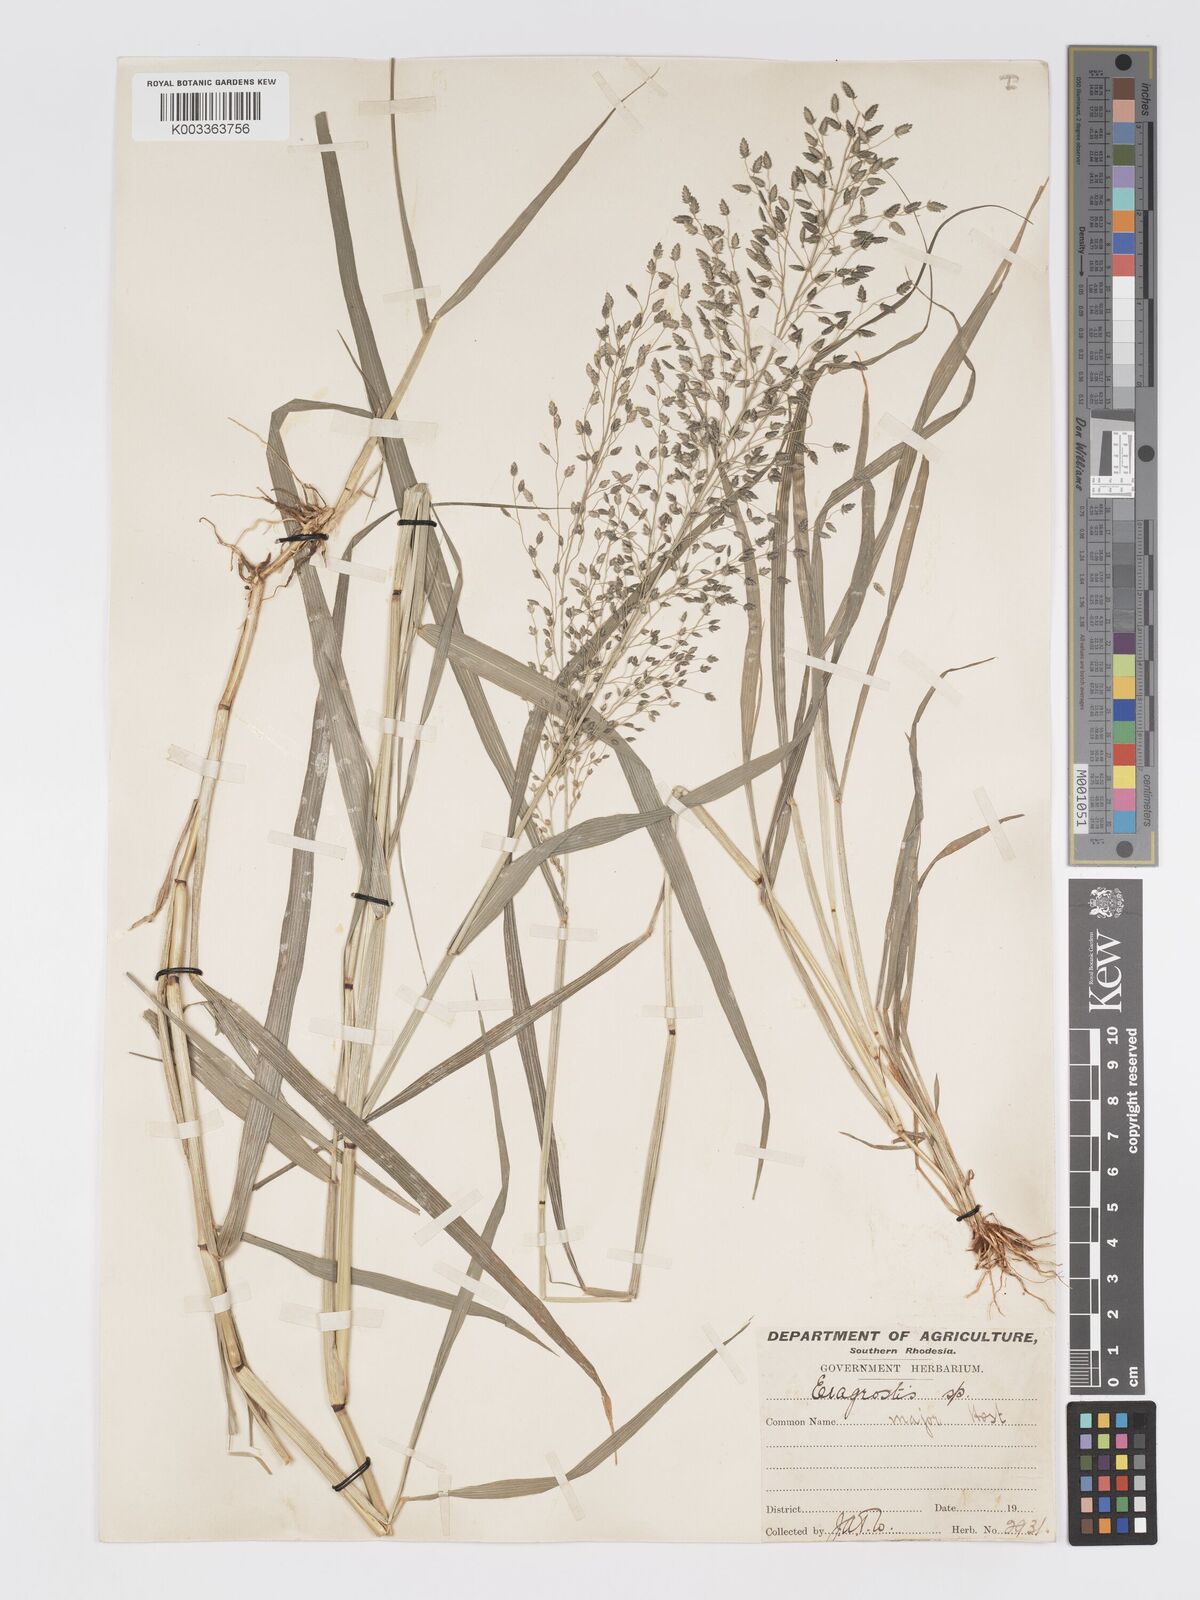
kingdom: Plantae
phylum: Tracheophyta
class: Liliopsida
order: Poales
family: Poaceae
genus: Eragrostis
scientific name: Eragrostis cilianensis
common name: Stinkgrass
